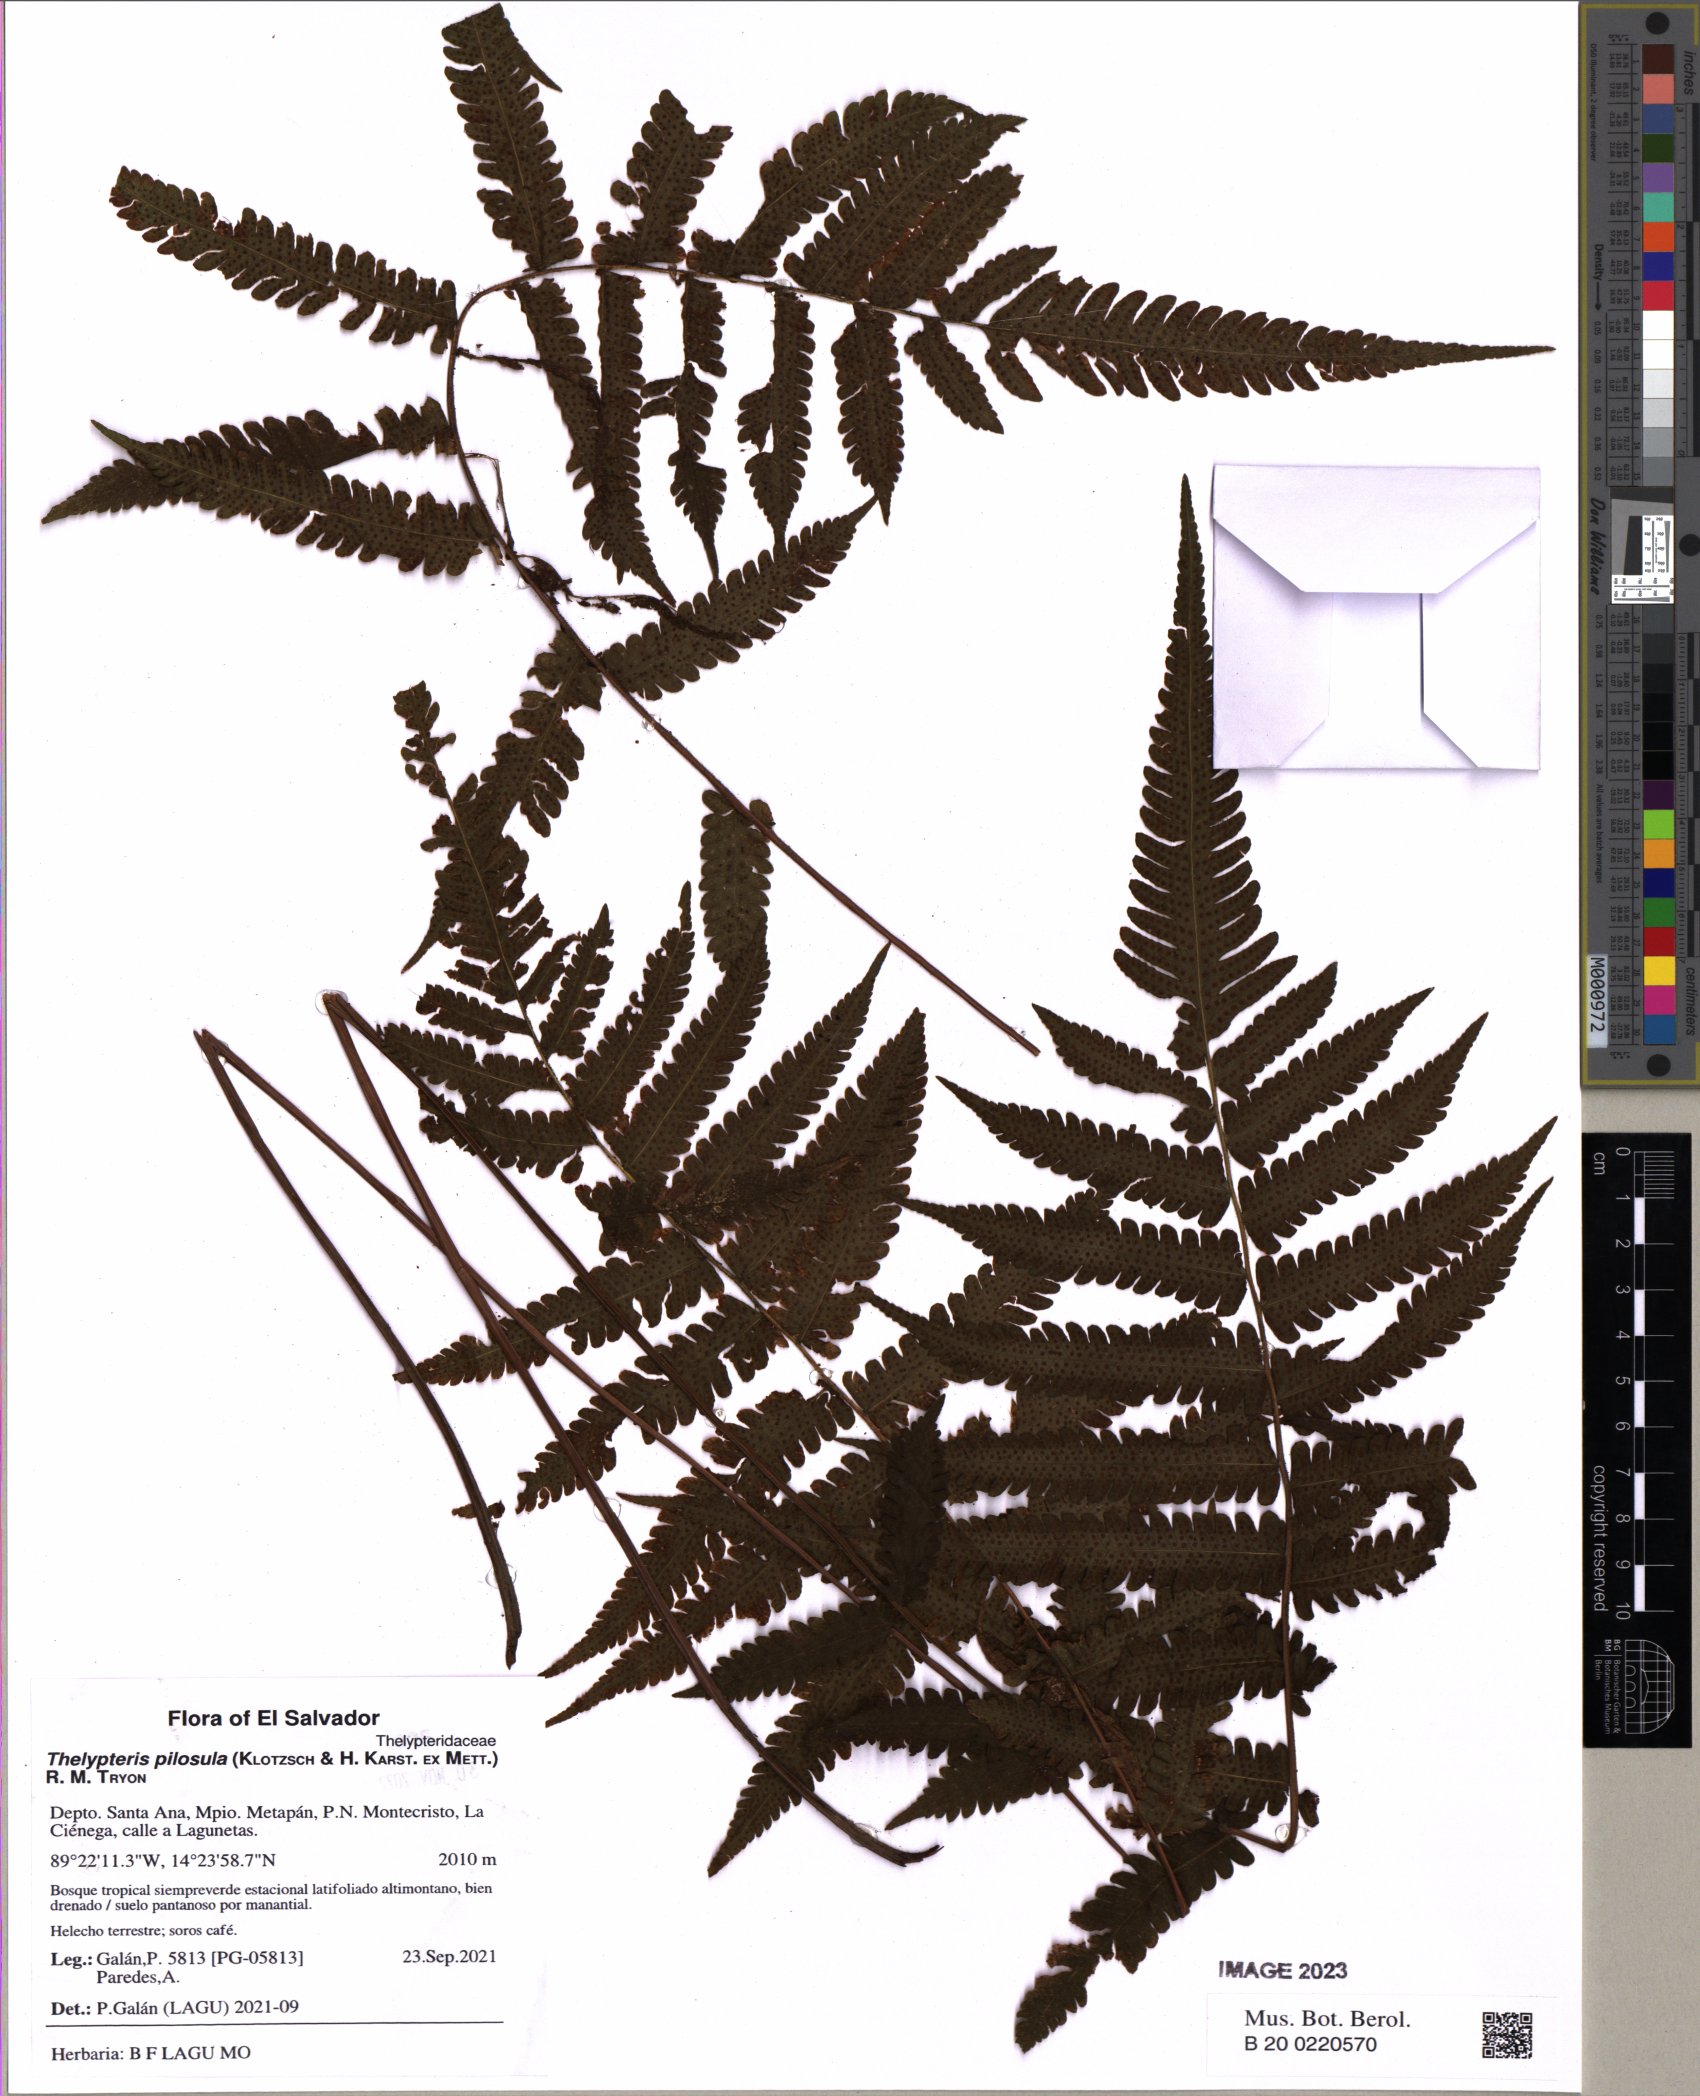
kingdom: Plantae
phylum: Tracheophyta
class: Polypodiopsida
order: Polypodiales
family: Thelypteridaceae
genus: Amauropelta
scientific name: Amauropelta pilosula
